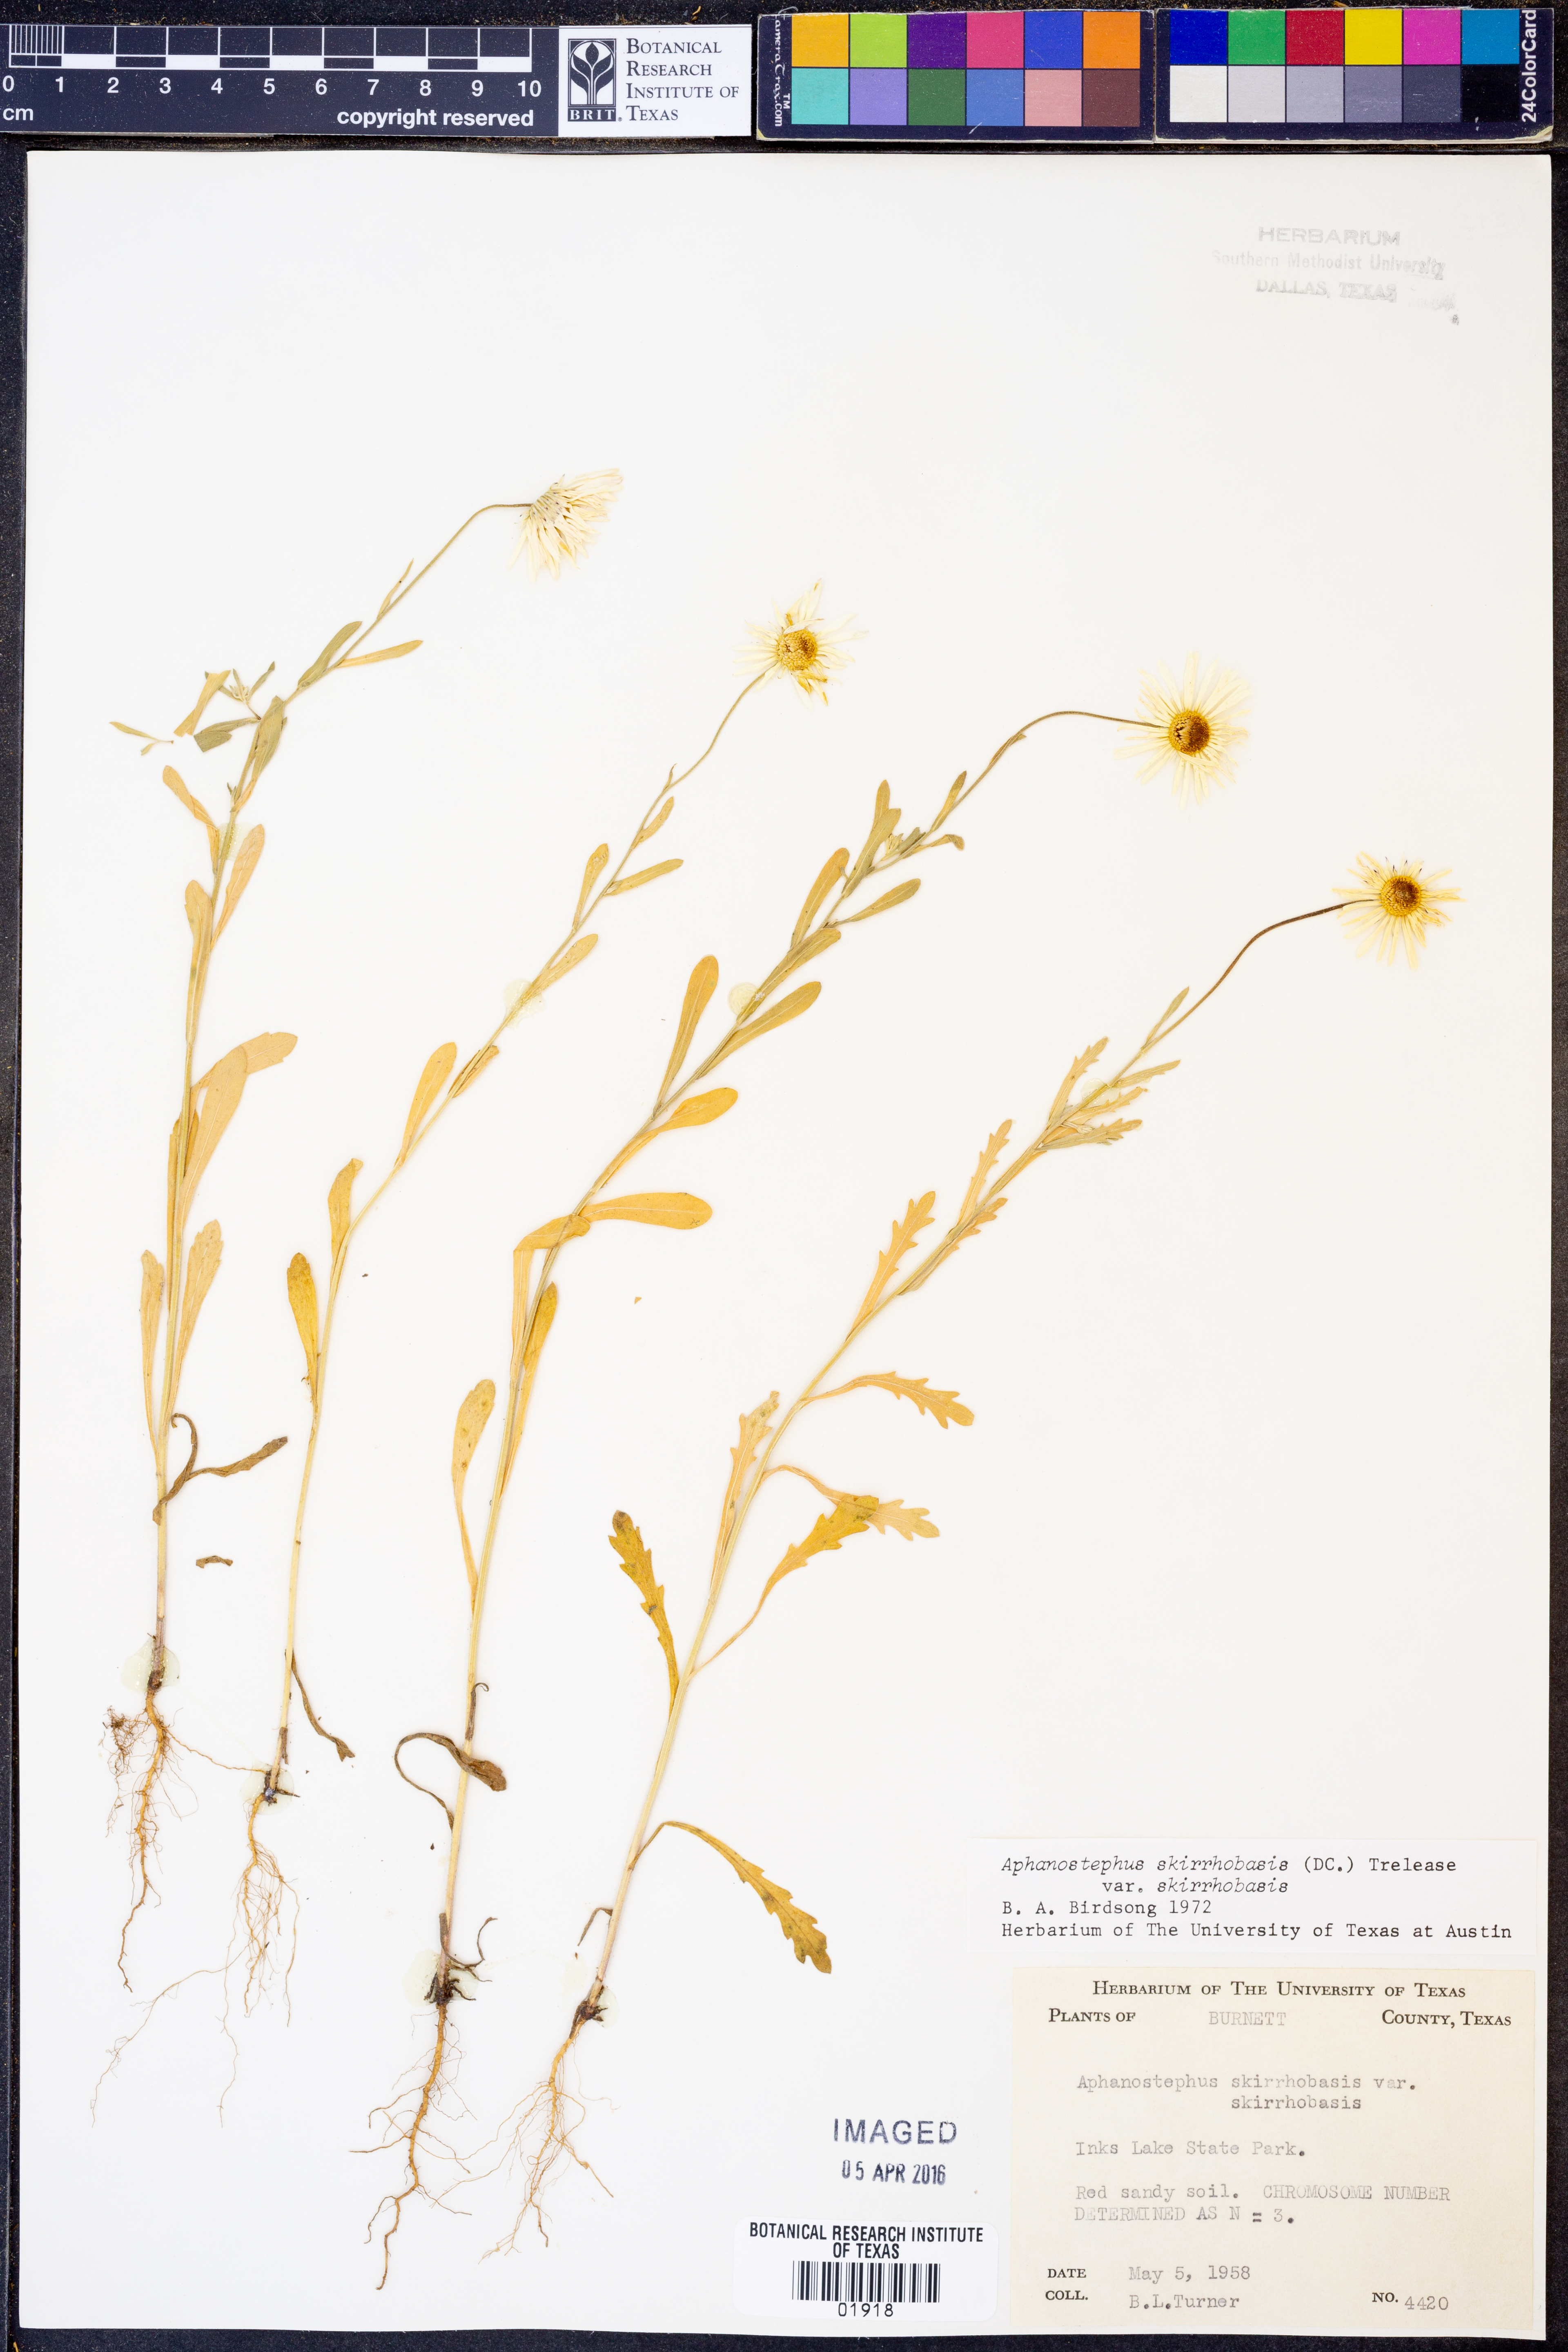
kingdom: Plantae
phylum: Tracheophyta
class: Magnoliopsida
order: Asterales
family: Asteraceae
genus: Aphanostephus
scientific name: Aphanostephus skirrhobasis
